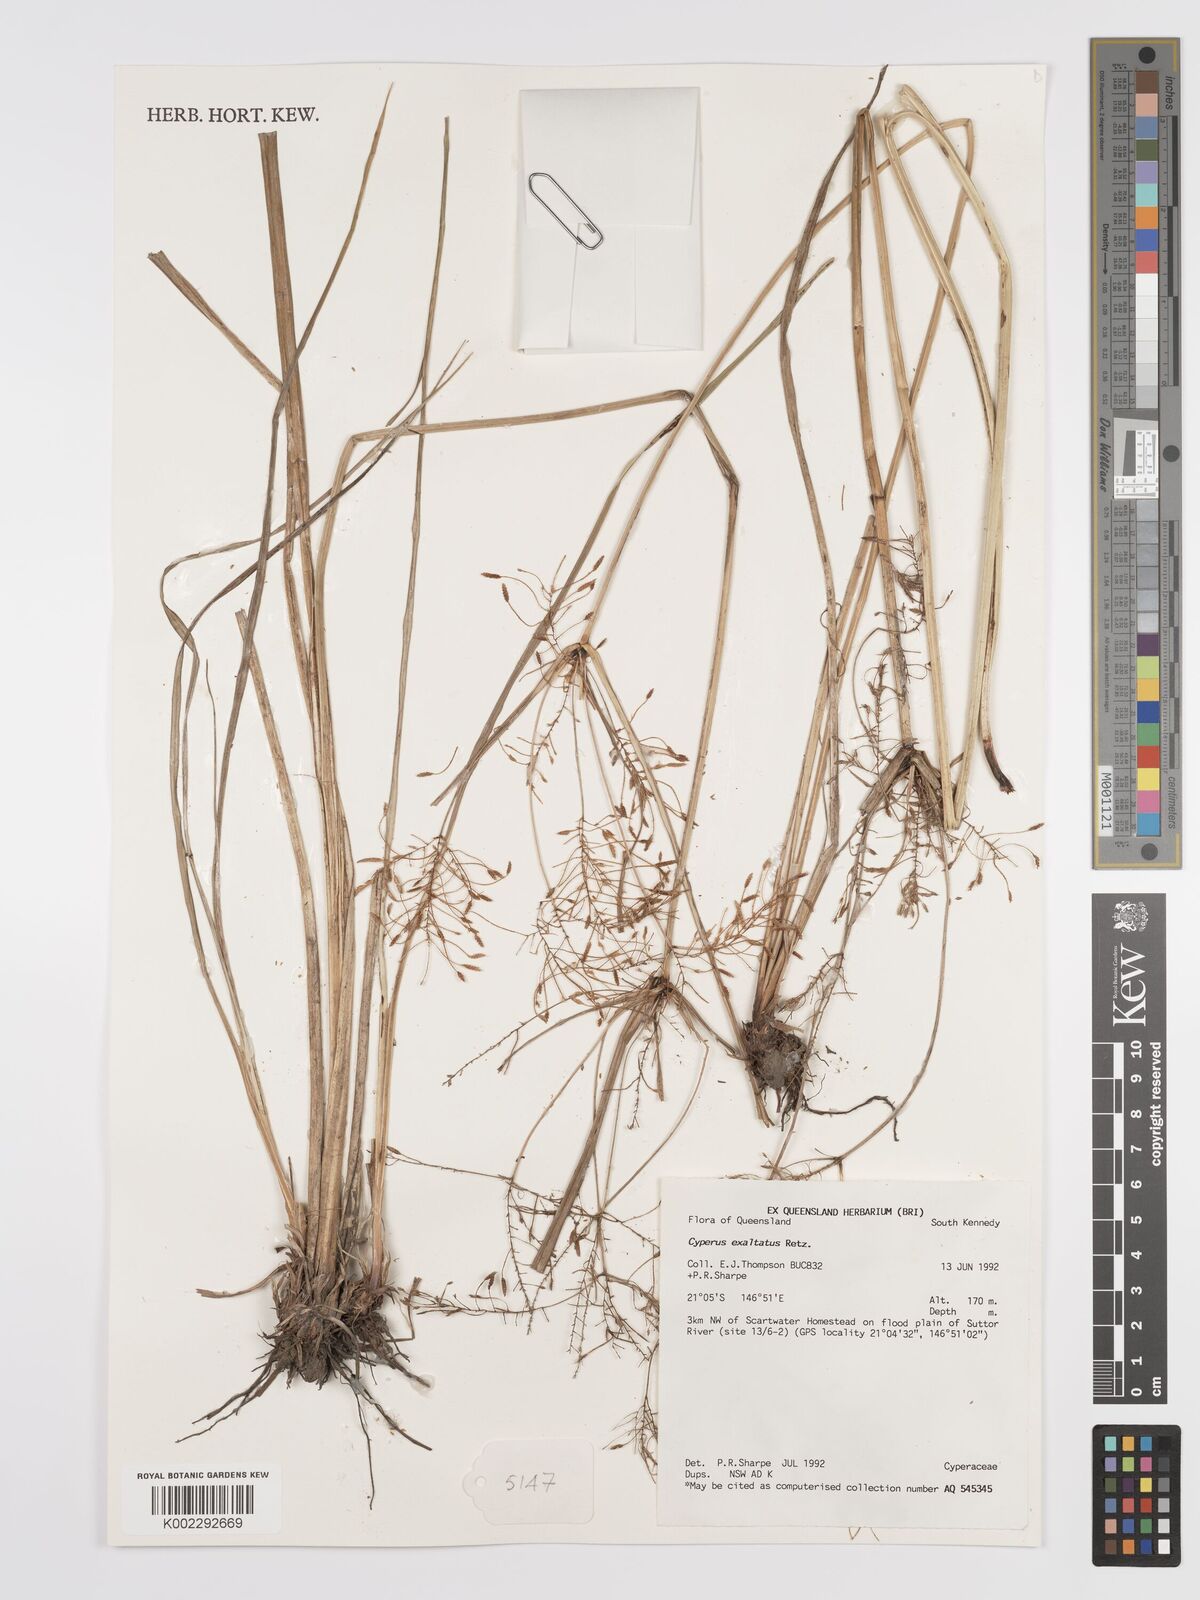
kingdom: Plantae
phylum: Tracheophyta
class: Liliopsida
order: Poales
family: Cyperaceae
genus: Cyperus
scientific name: Cyperus exaltatus
